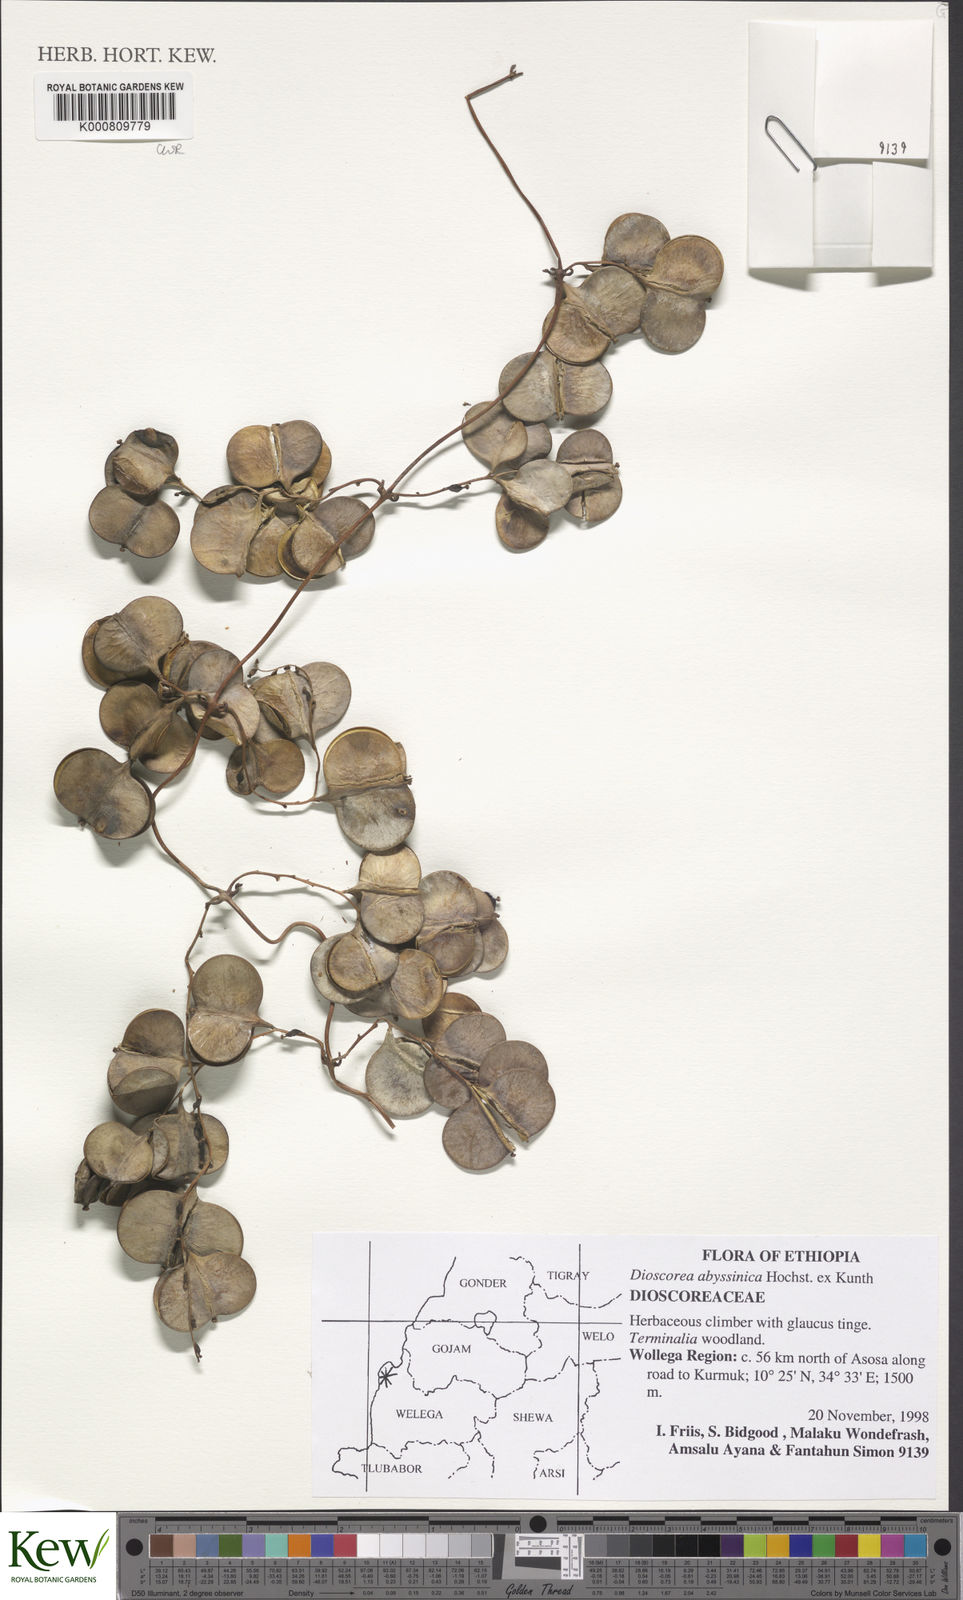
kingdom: Plantae
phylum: Tracheophyta
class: Liliopsida
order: Dioscoreales
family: Dioscoreaceae
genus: Dioscorea
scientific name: Dioscorea abyssinica
